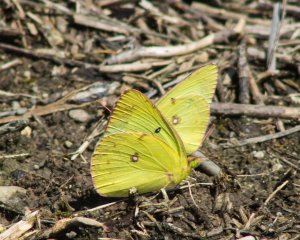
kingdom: Animalia
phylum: Arthropoda
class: Insecta
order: Lepidoptera
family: Pieridae
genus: Colias
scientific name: Colias philodice
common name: Clouded Sulphur
